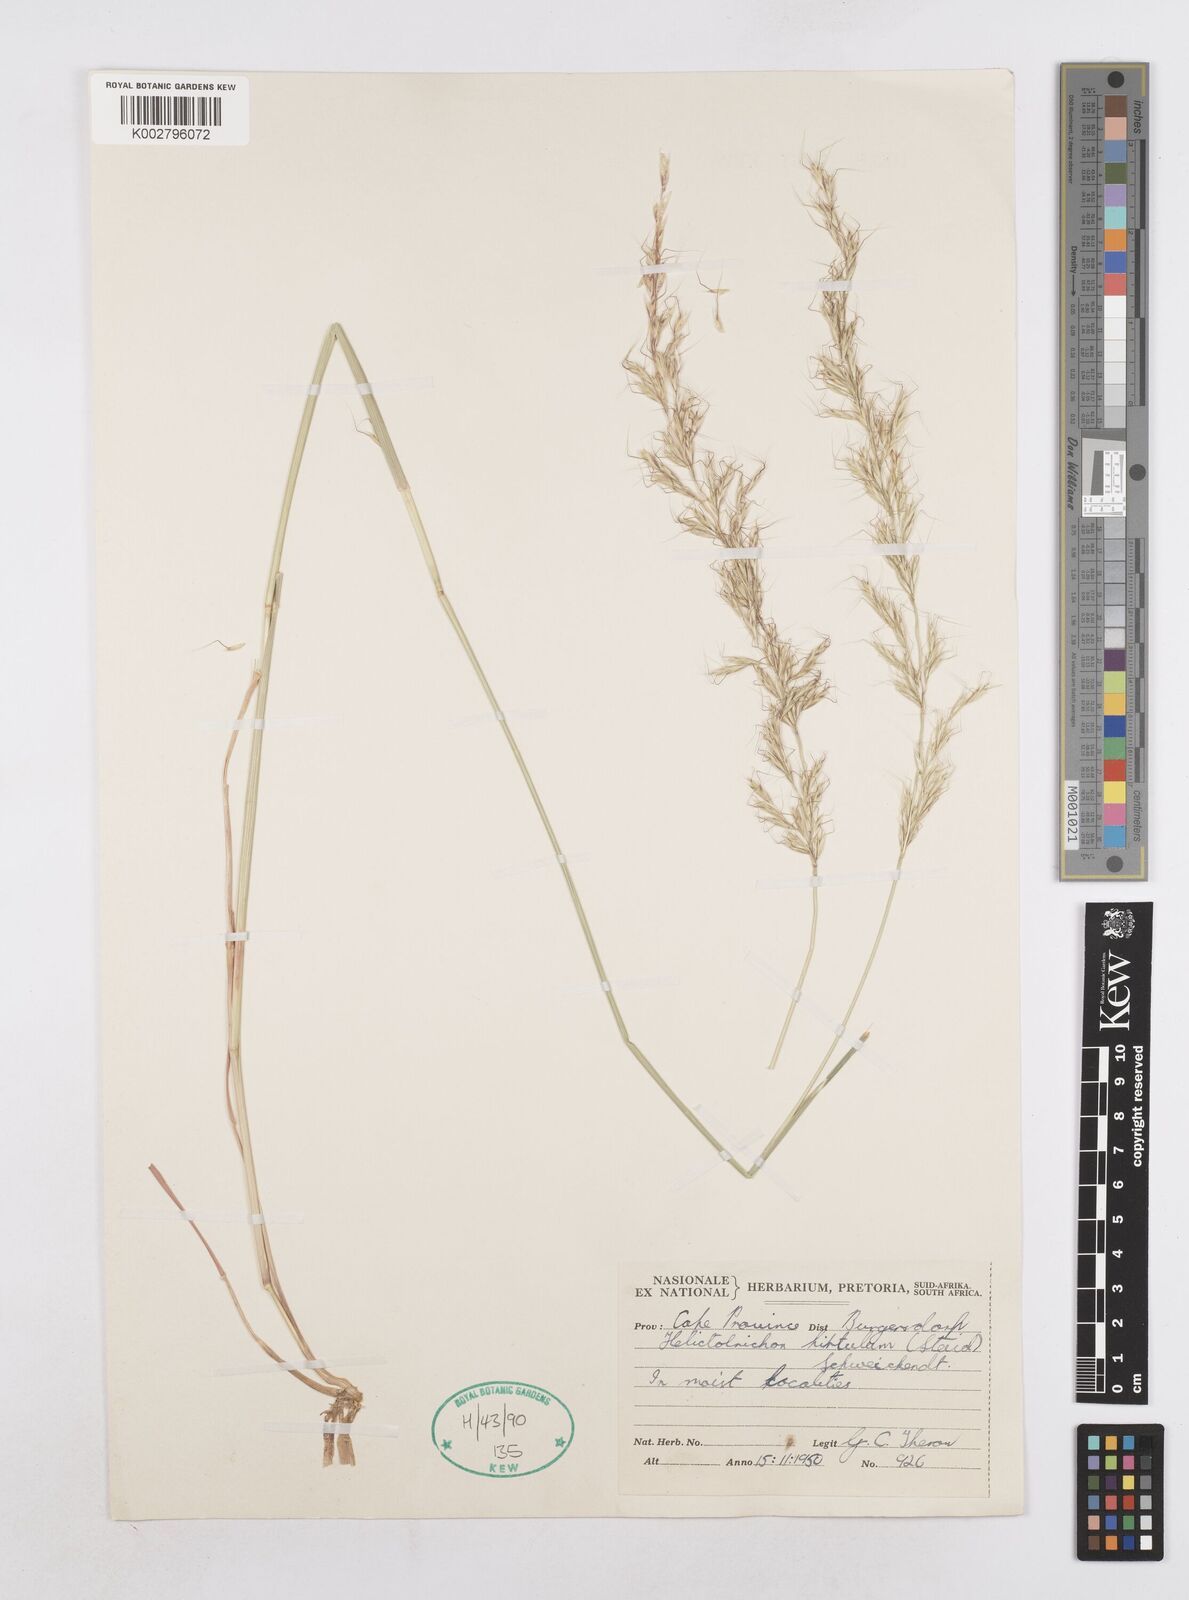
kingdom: Plantae
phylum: Tracheophyta
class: Liliopsida
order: Poales
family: Poaceae
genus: Trisetopsis
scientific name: Trisetopsis hirtula
